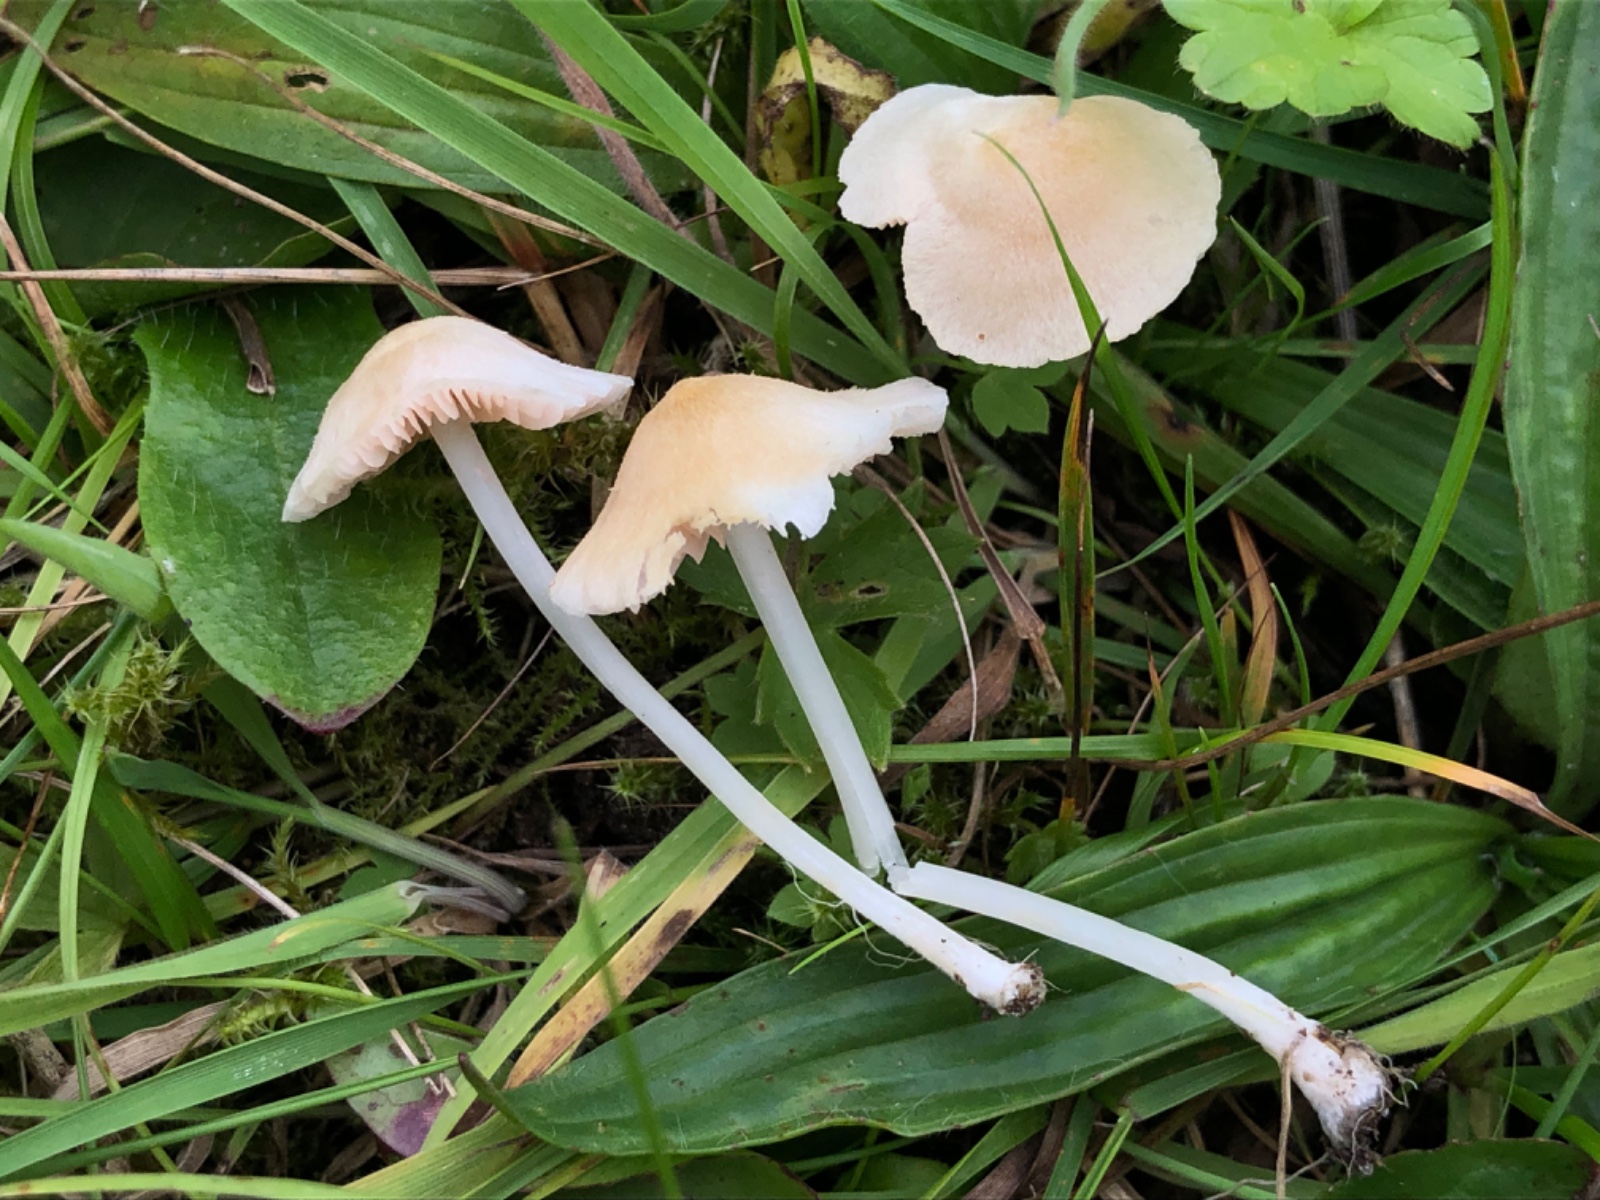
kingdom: Fungi
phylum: Basidiomycota
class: Agaricomycetes
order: Agaricales
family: Entolomataceae
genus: Entoloma
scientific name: Entoloma sericellum
